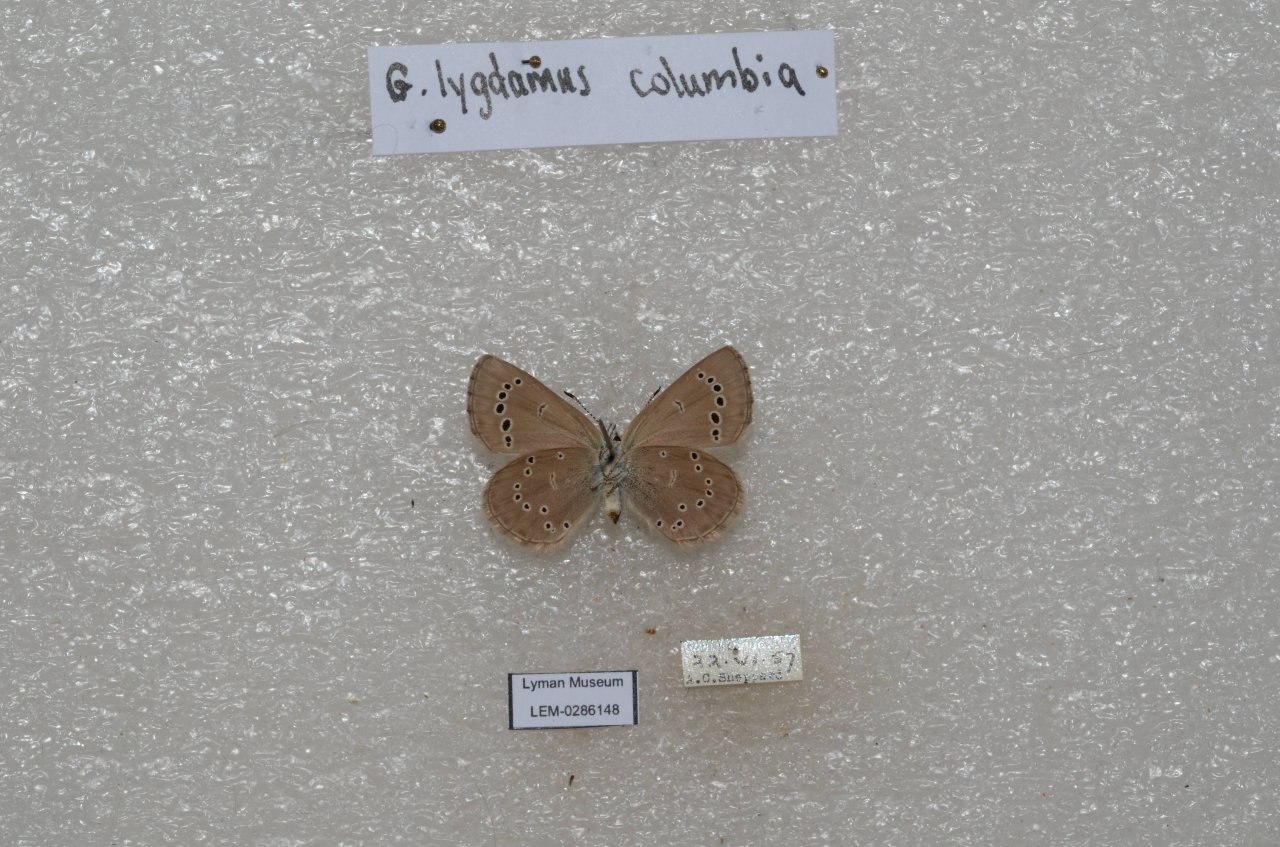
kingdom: Animalia
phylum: Arthropoda
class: Insecta
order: Lepidoptera
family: Lycaenidae
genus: Glaucopsyche
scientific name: Glaucopsyche lygdamus
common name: Silvery Blue
